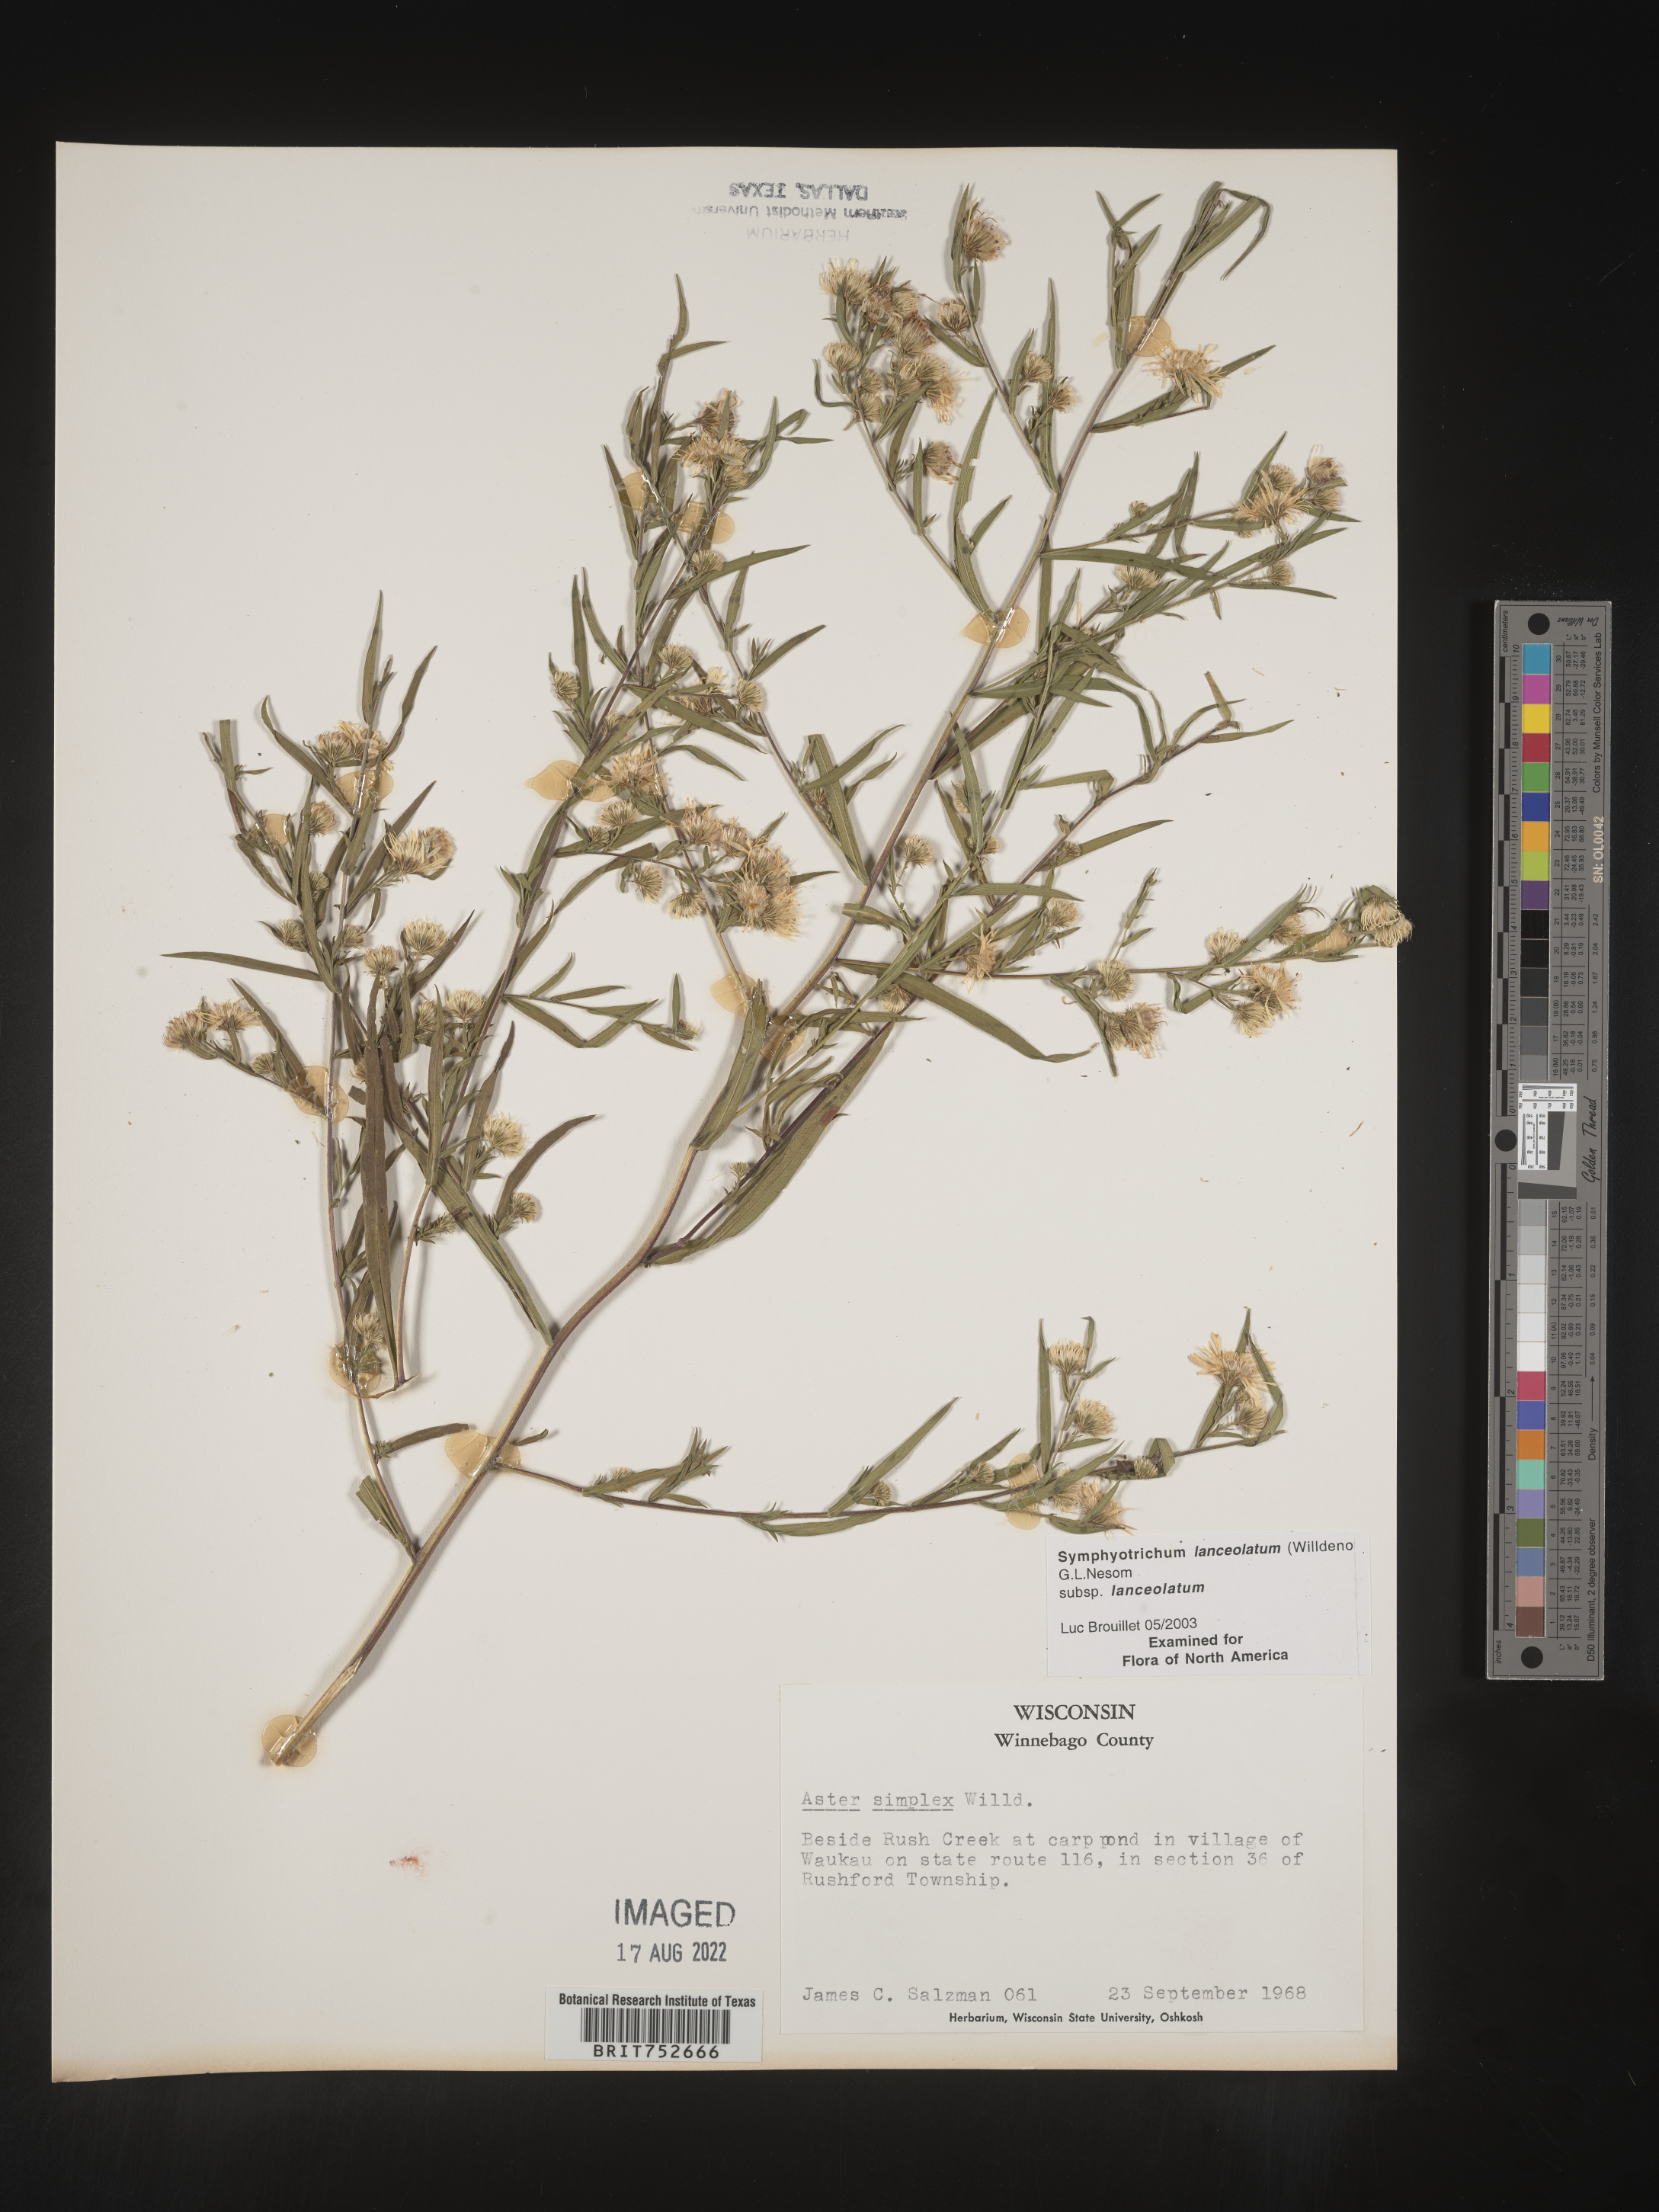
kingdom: Plantae
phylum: Tracheophyta
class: Magnoliopsida
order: Asterales
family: Asteraceae
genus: Symphyotrichum
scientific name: Symphyotrichum lanceolatum
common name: Panicled aster
